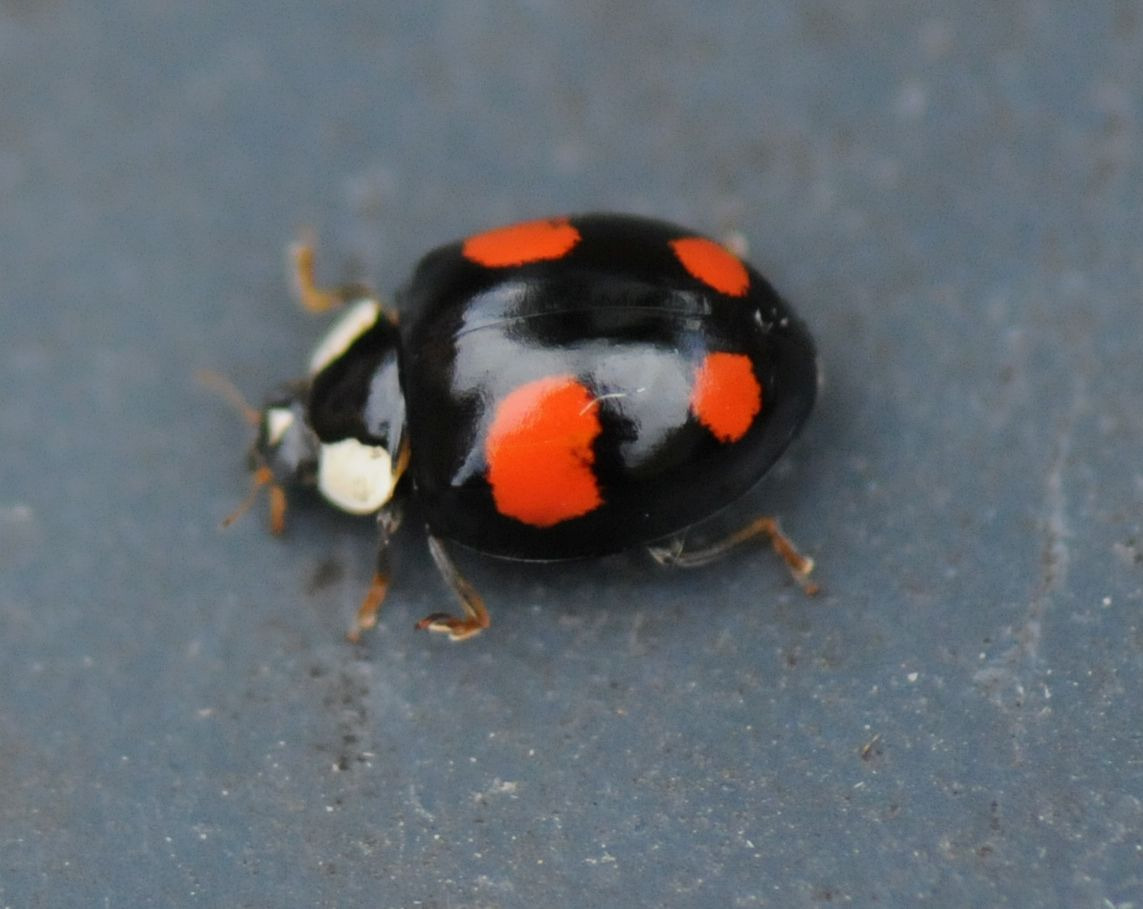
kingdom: Animalia
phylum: Arthropoda
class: Insecta
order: Coleoptera
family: Coccinellidae
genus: Harmonia
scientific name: Harmonia axyridis
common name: Harlekinmariehøne
